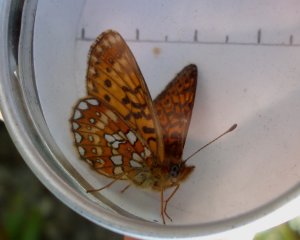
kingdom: Animalia
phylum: Arthropoda
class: Insecta
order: Lepidoptera
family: Nymphalidae
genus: Boloria
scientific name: Boloria eunomia
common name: Bog Fritillary
